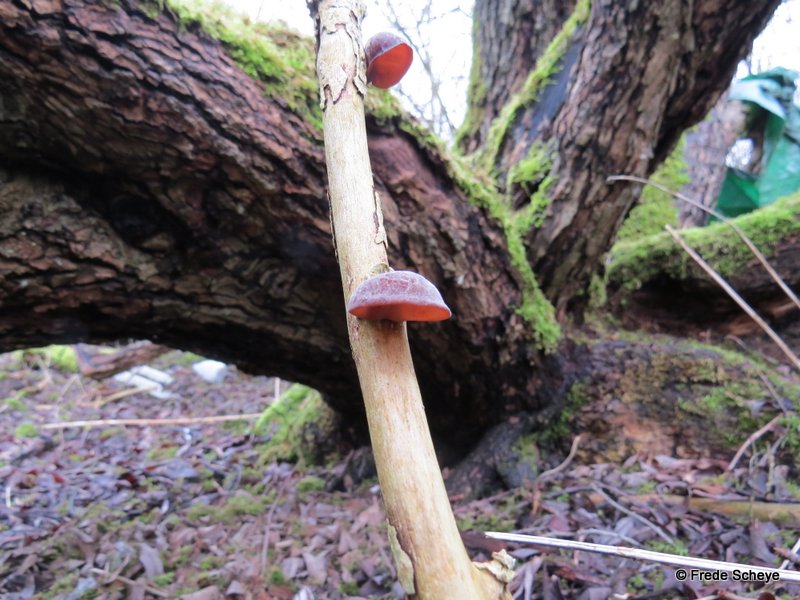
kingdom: Fungi
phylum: Basidiomycota
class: Agaricomycetes
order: Auriculariales
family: Auriculariaceae
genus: Auricularia
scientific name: Auricularia auricula-judae
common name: almindelig judasøre
